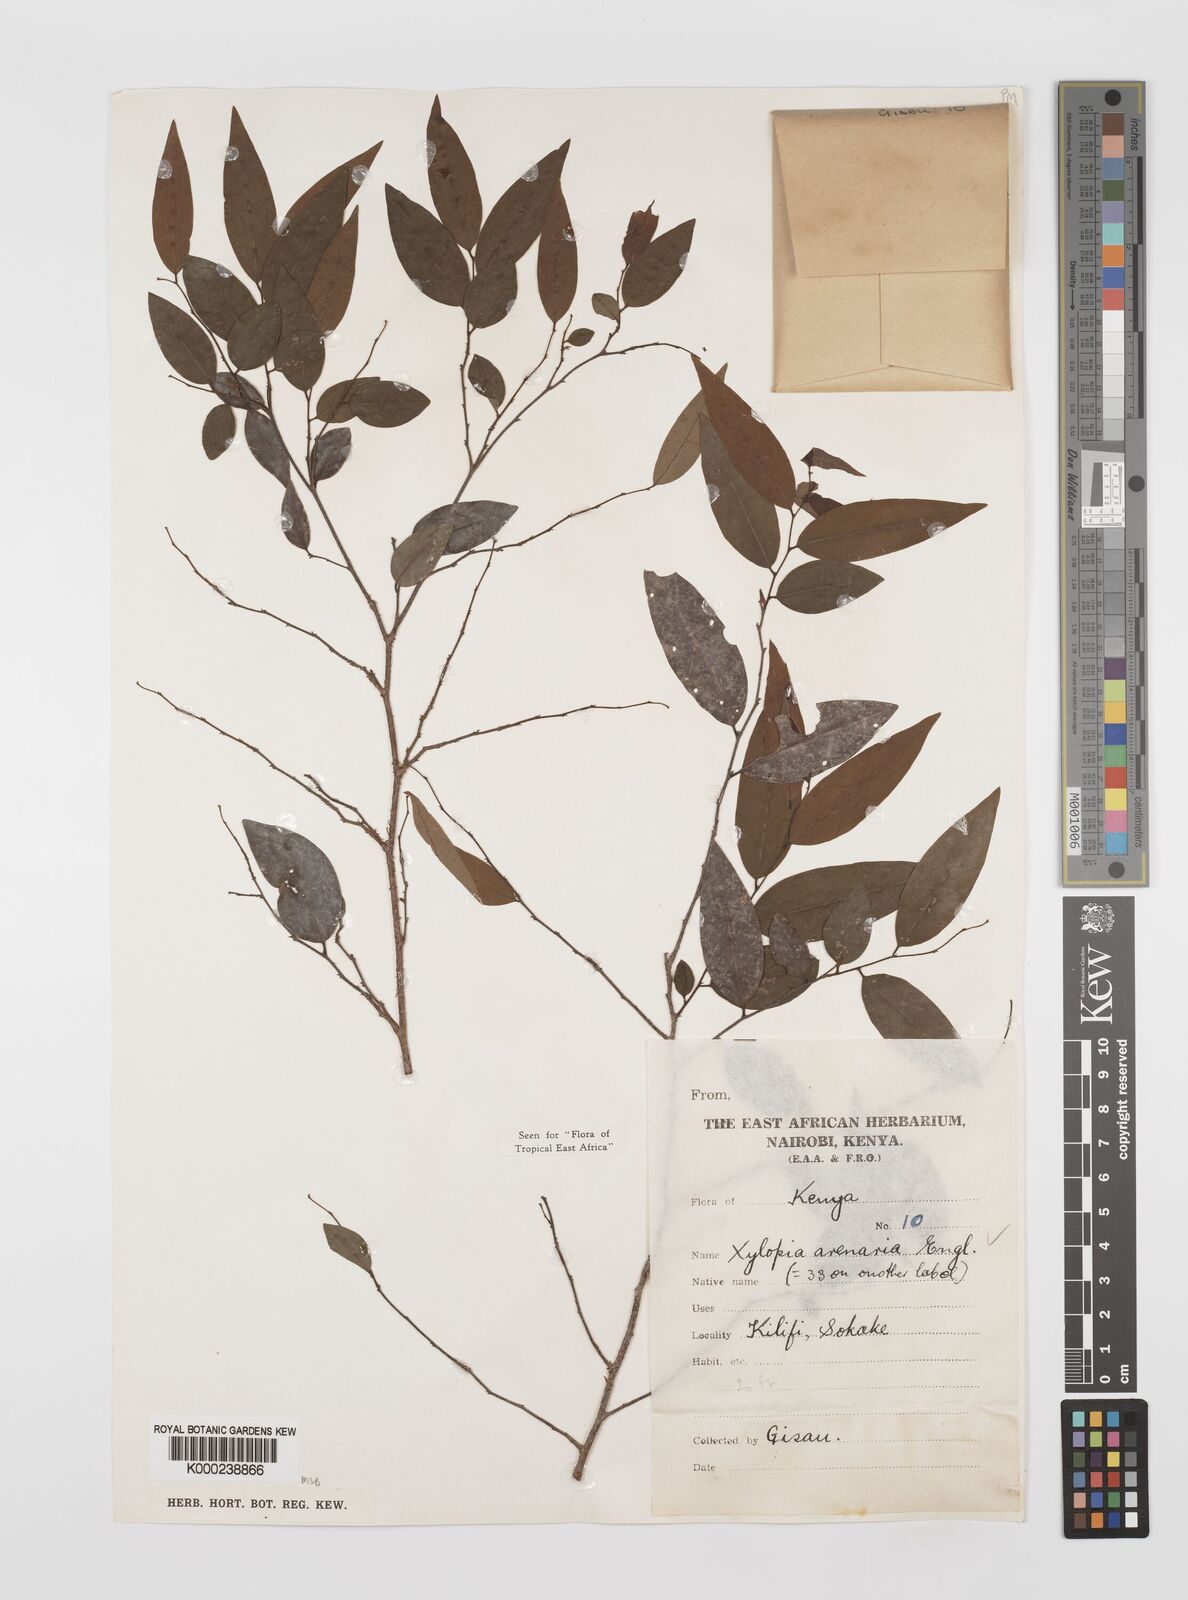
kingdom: Plantae
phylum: Tracheophyta
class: Magnoliopsida
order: Magnoliales
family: Annonaceae
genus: Xylopia
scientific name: Xylopia arenaria
